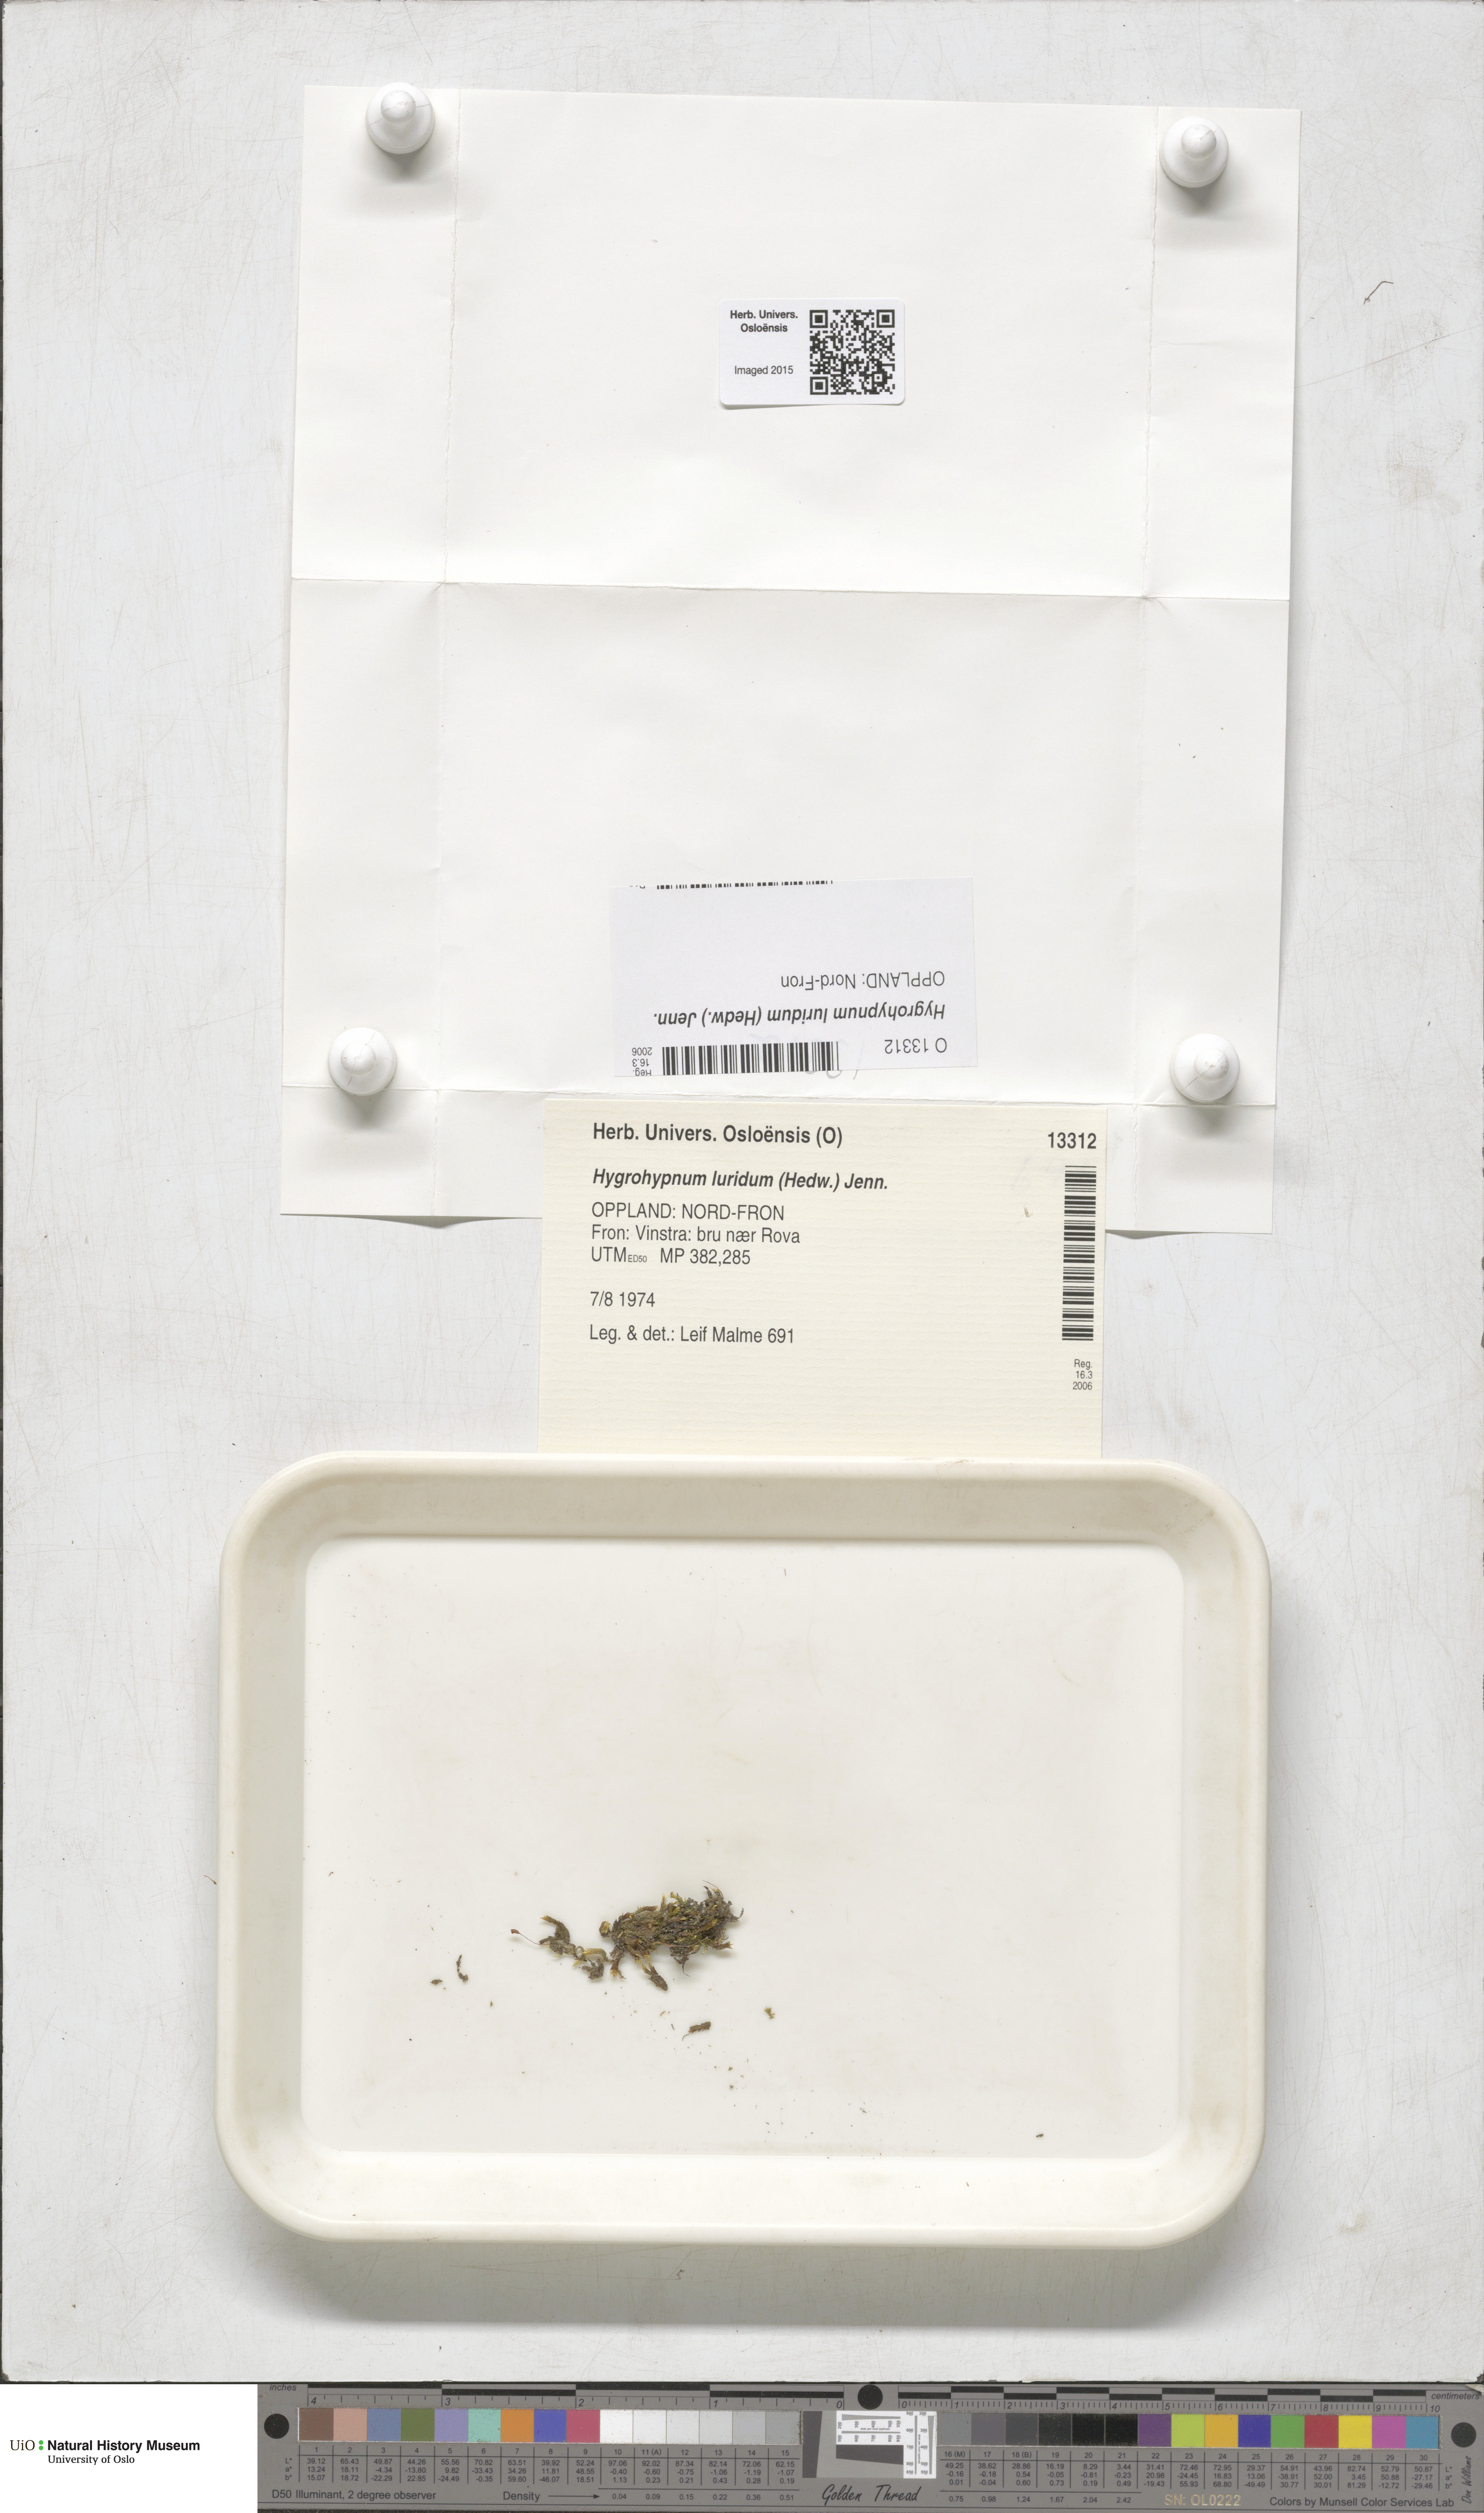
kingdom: Plantae
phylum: Bryophyta
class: Bryopsida
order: Hypnales
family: Amblystegiaceae
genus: Hygrohypnum
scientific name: Hygrohypnum luridum
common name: Drab brook moss
